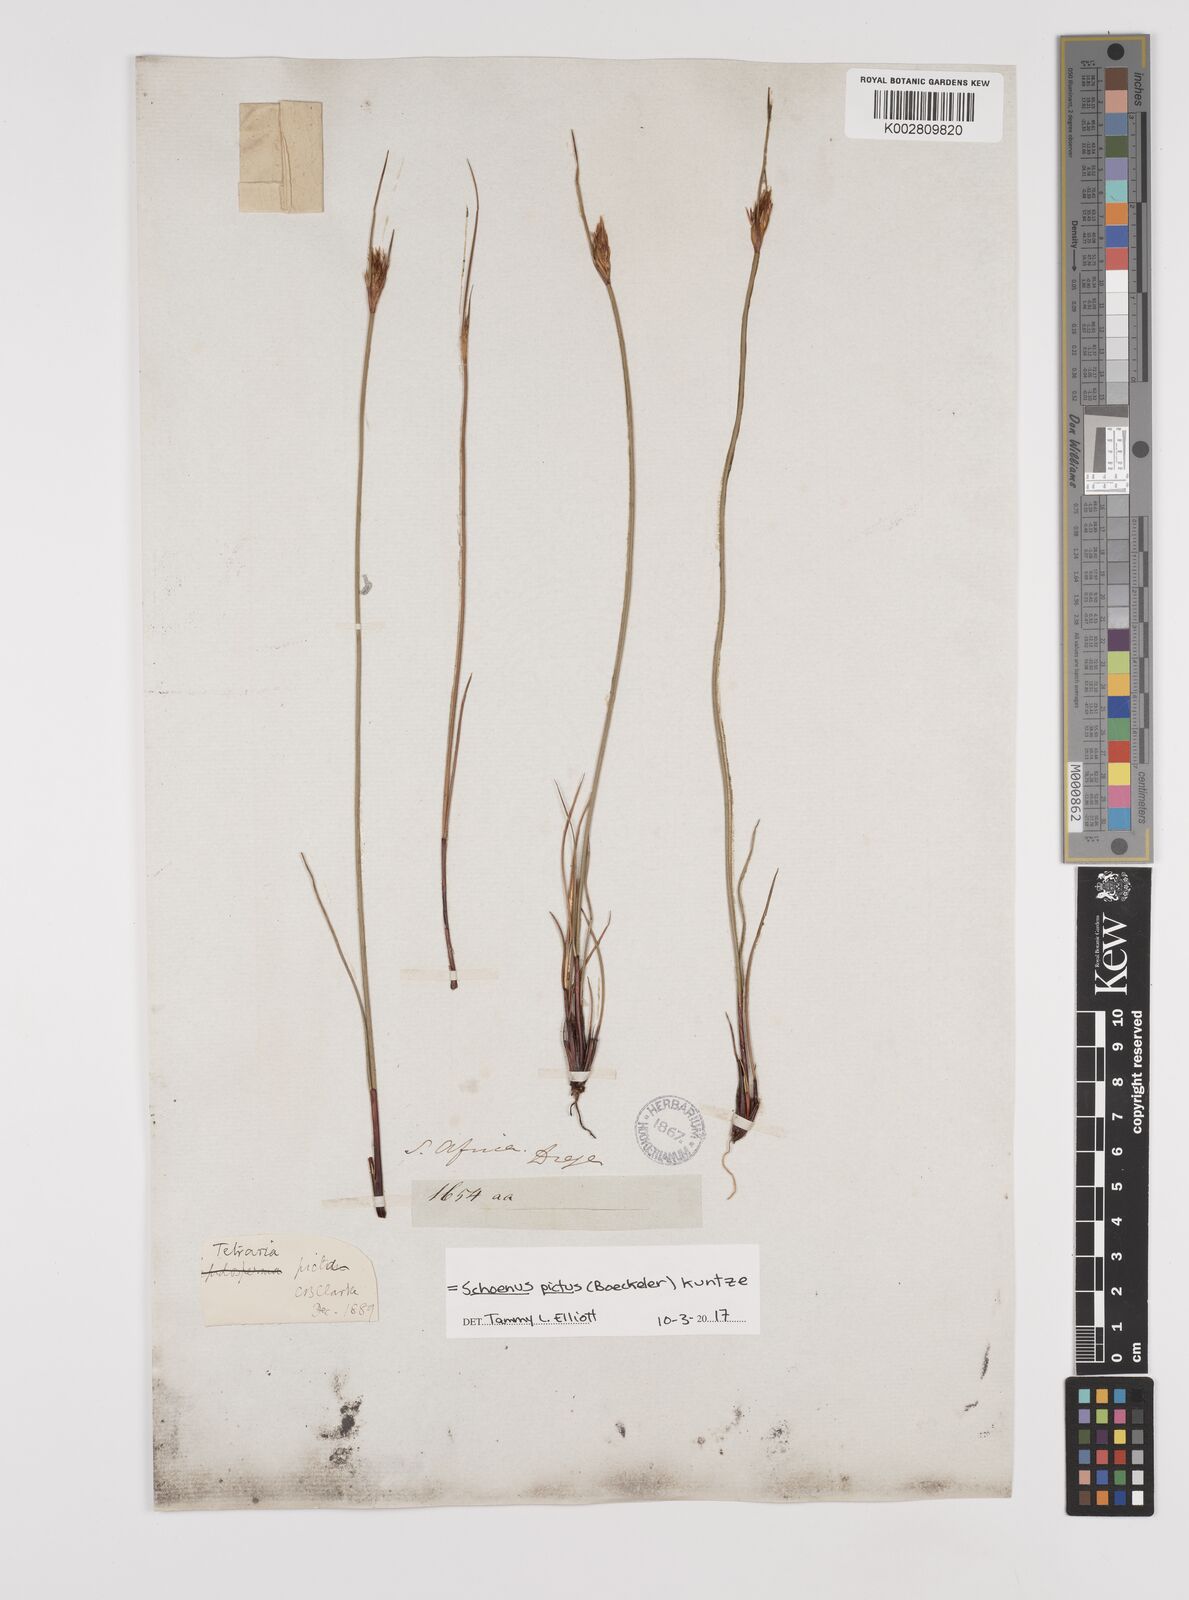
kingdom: Plantae
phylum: Tracheophyta
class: Liliopsida
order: Poales
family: Cyperaceae
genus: Schoenus
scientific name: Schoenus pictus
